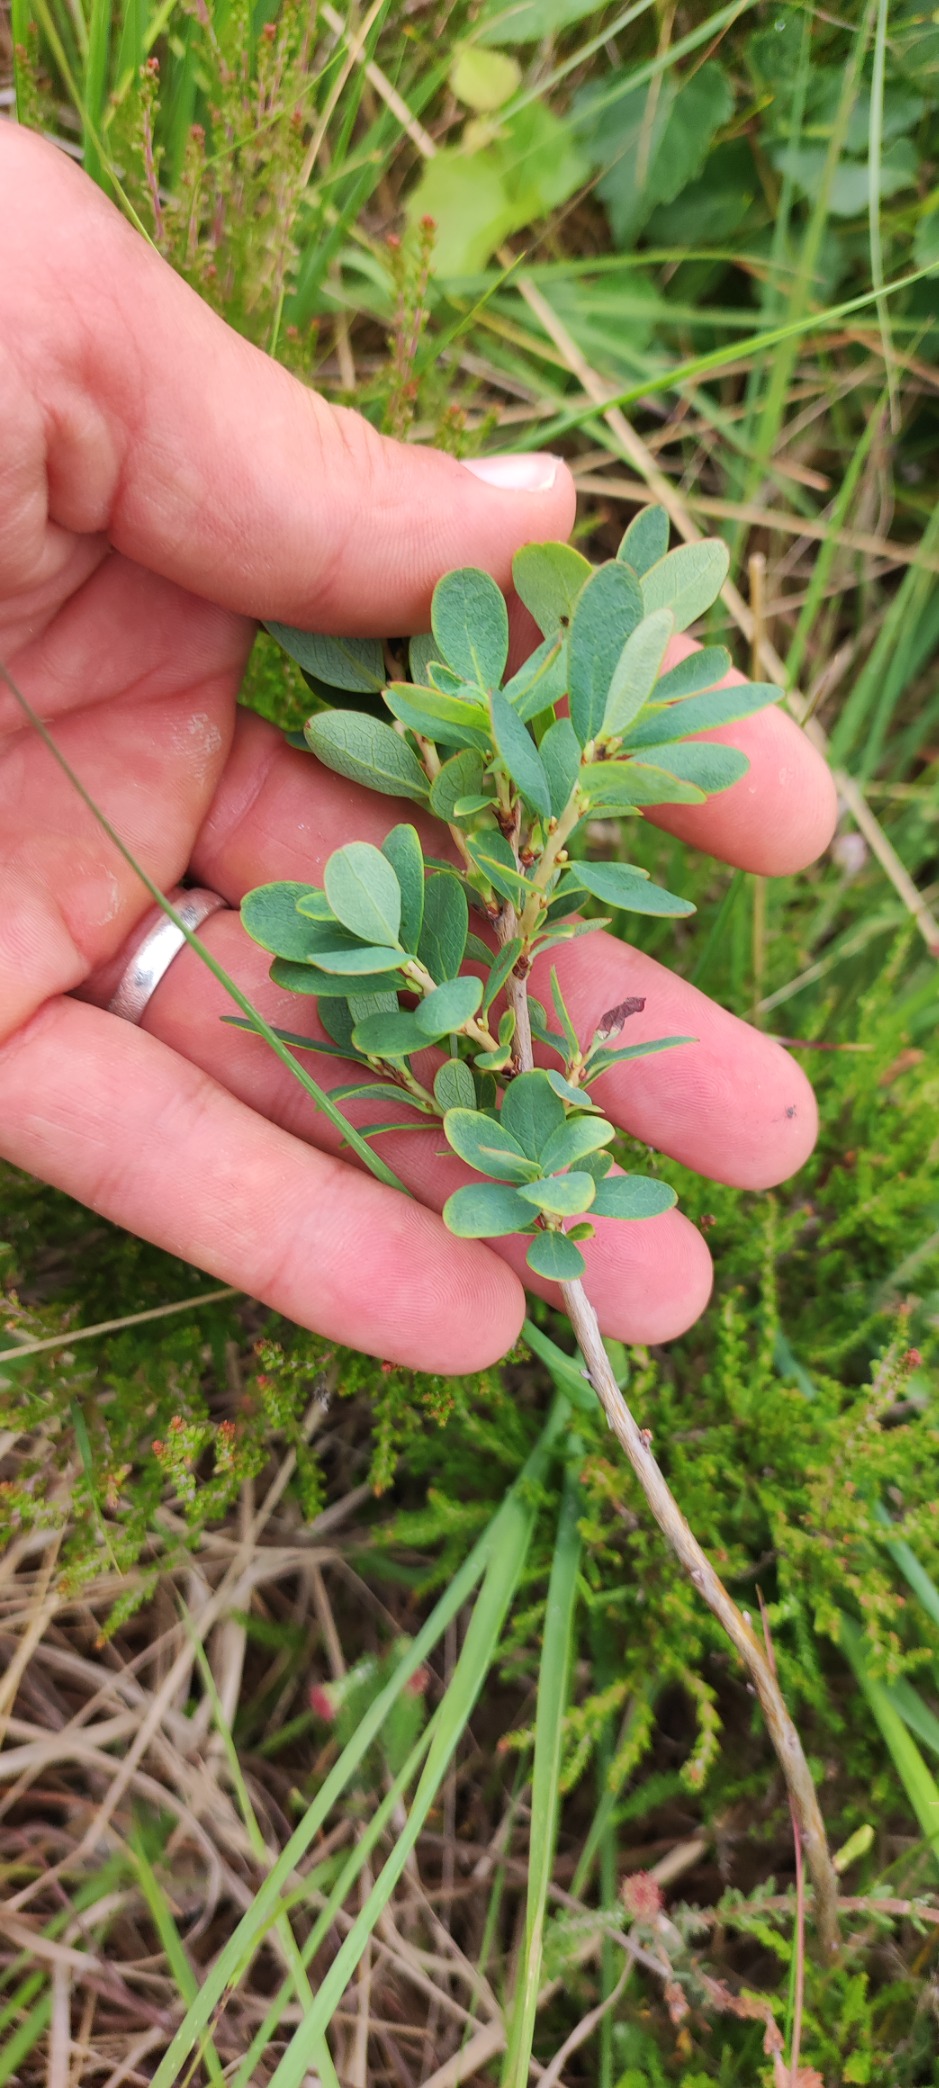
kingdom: Plantae
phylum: Tracheophyta
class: Magnoliopsida
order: Ericales
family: Ericaceae
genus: Vaccinium
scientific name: Vaccinium uliginosum
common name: Mose-bølle
